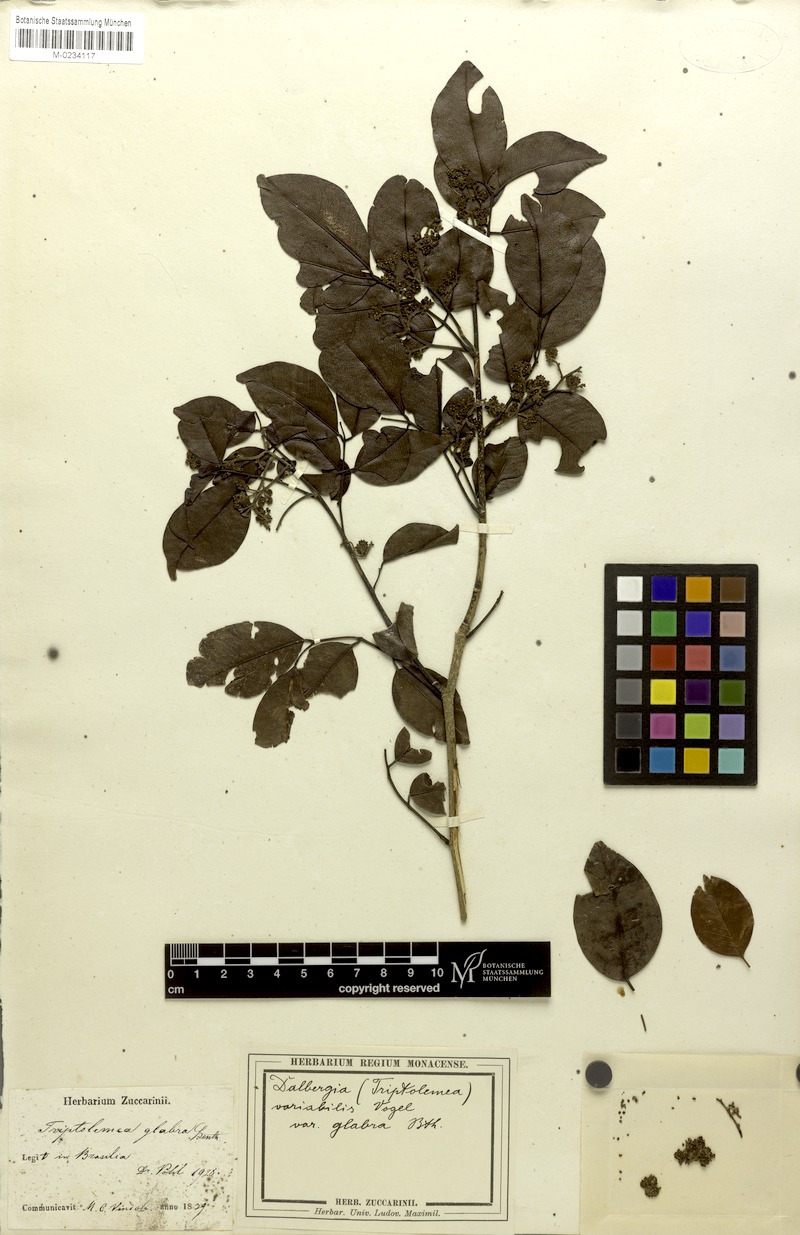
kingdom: Plantae
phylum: Tracheophyta
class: Magnoliopsida
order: Fabales
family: Fabaceae
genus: Dalbergia
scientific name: Dalbergia frutescens
